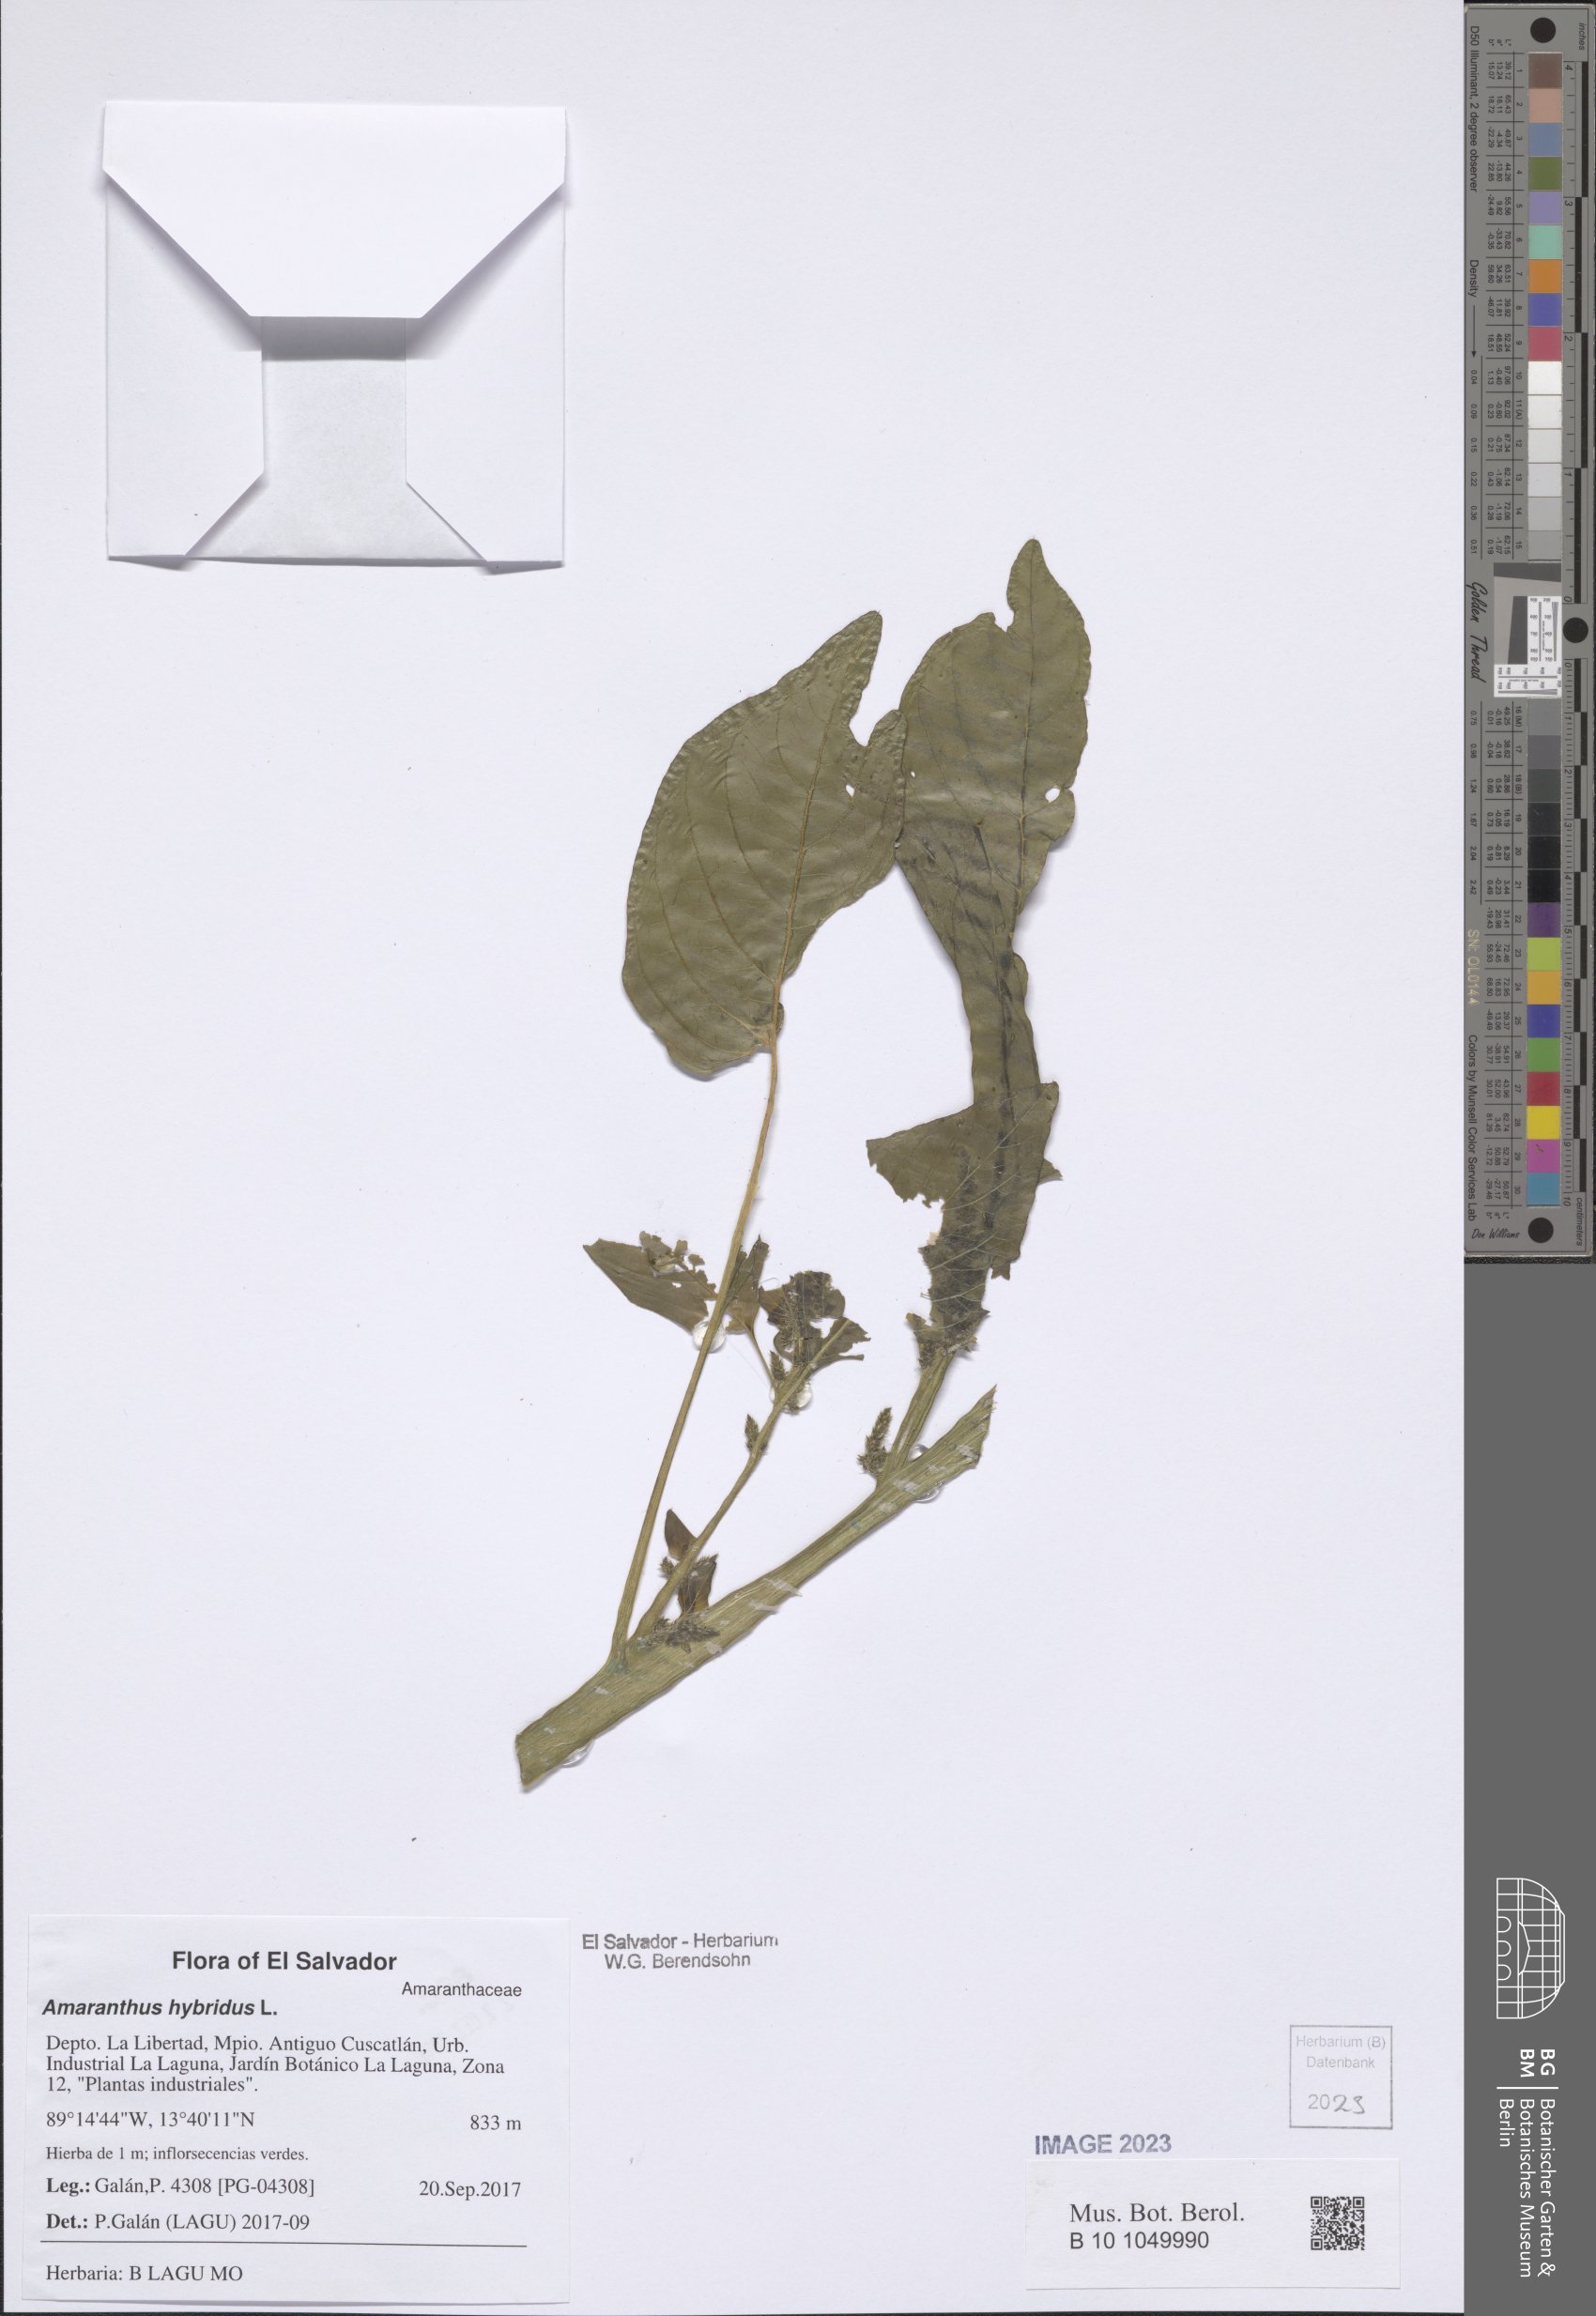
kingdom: Plantae
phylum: Tracheophyta
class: Magnoliopsida
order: Caryophyllales
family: Amaranthaceae
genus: Amaranthus
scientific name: Amaranthus hybridus
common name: Green amaranth
